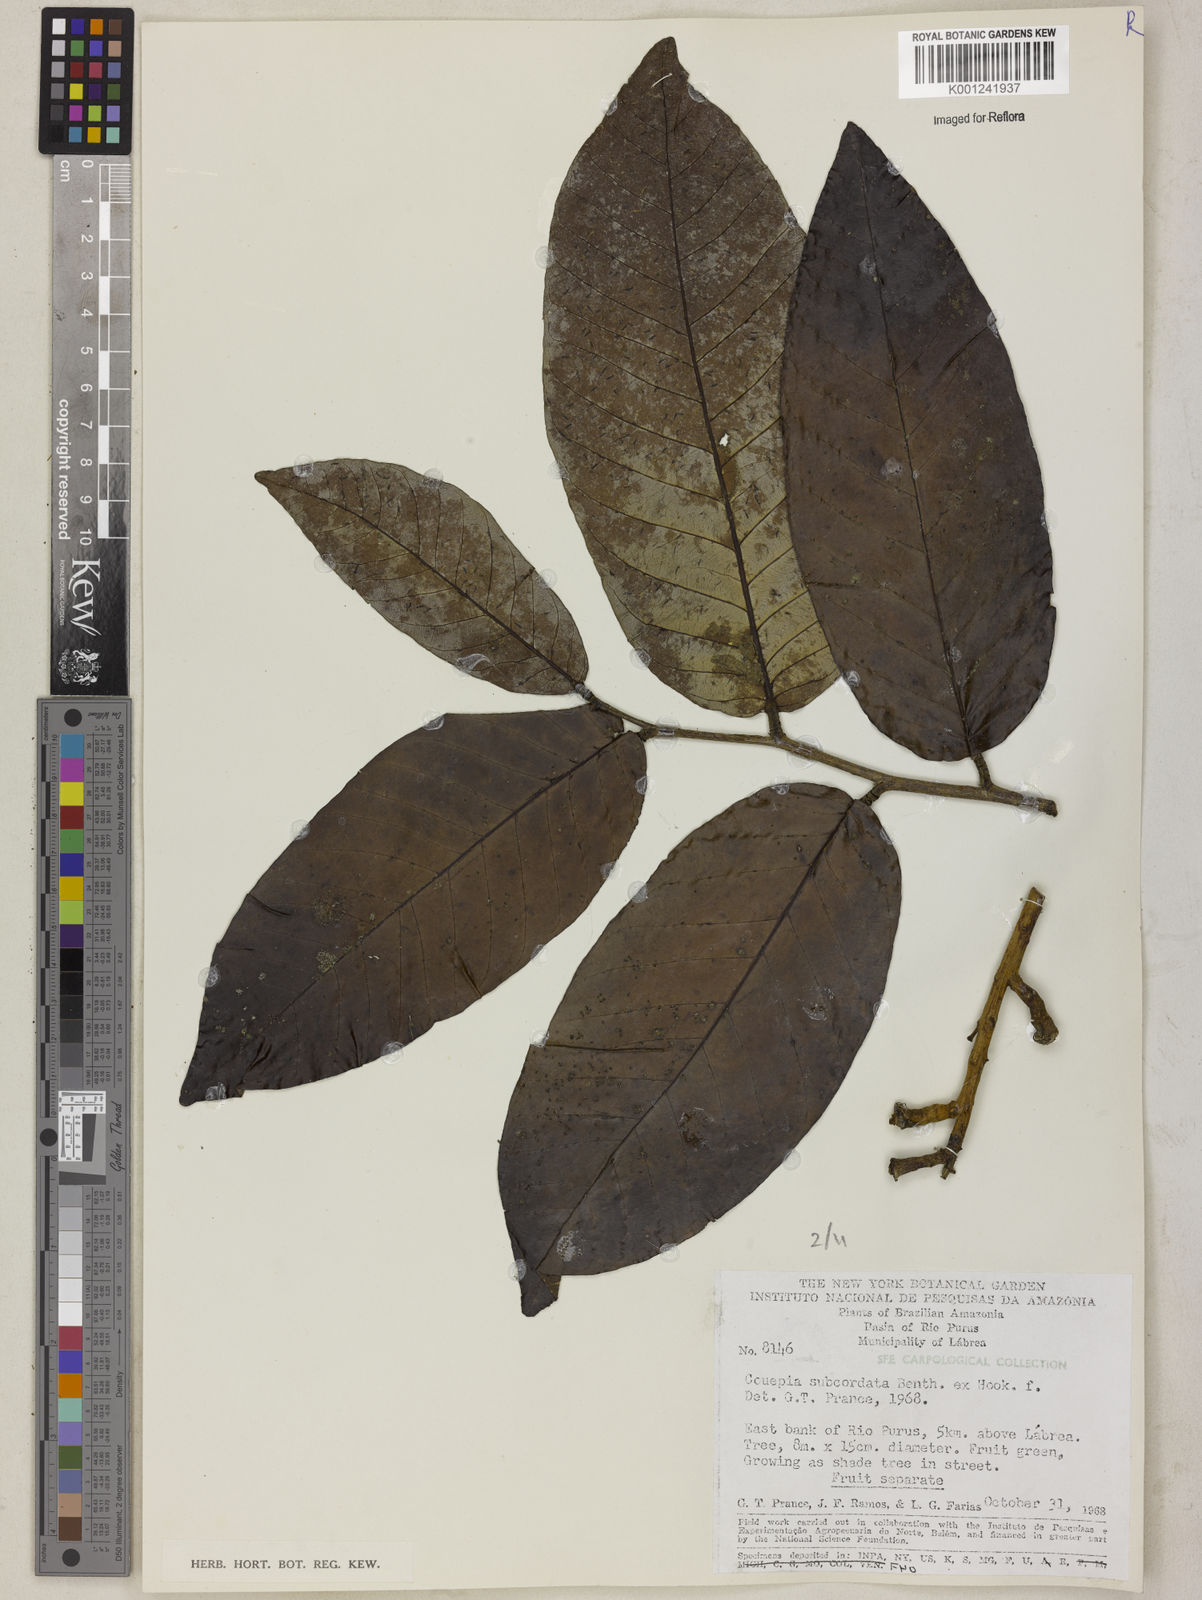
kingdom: Plantae
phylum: Tracheophyta
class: Magnoliopsida
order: Malpighiales
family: Chrysobalanaceae
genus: Couepia
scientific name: Couepia subcordata
